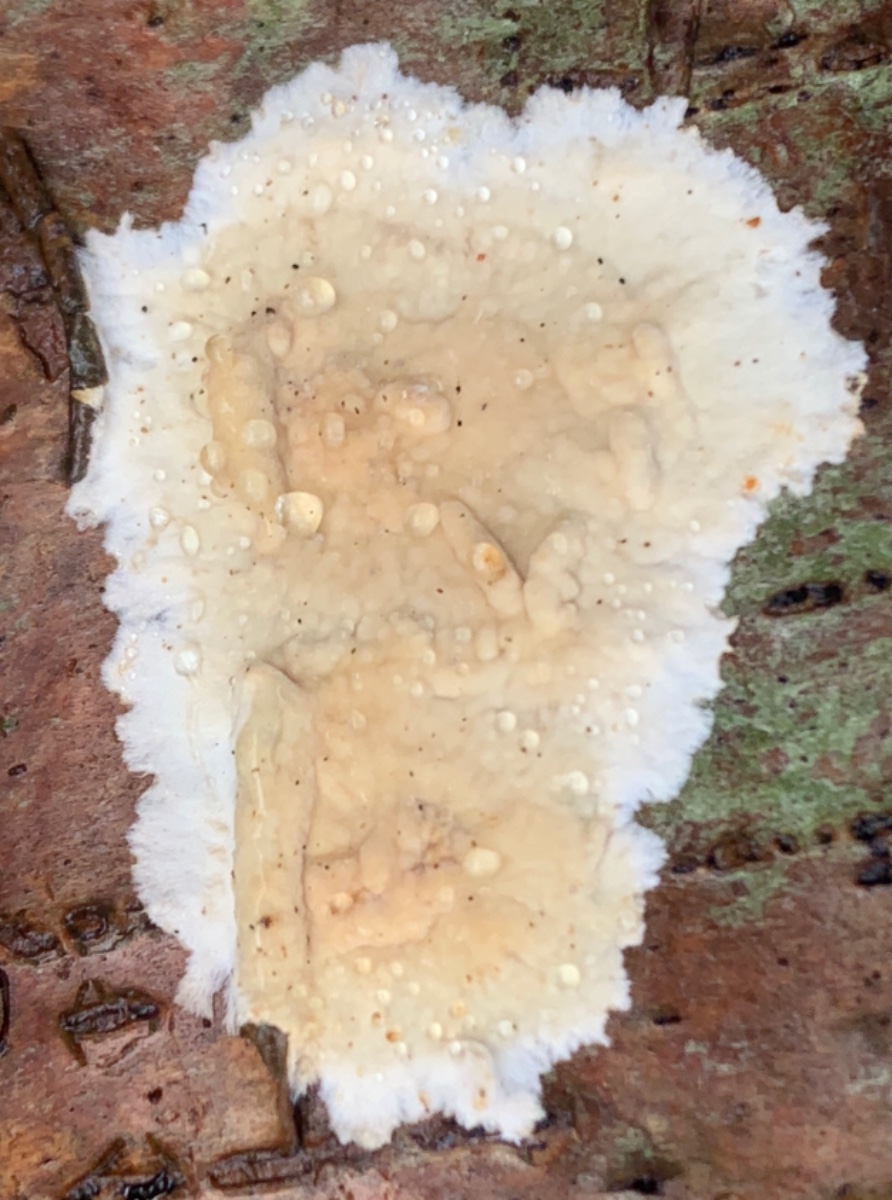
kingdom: Fungi
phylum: Basidiomycota
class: Agaricomycetes
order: Agaricales
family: Physalacriaceae
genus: Cylindrobasidium
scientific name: Cylindrobasidium evolvens
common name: sprækkehinde
